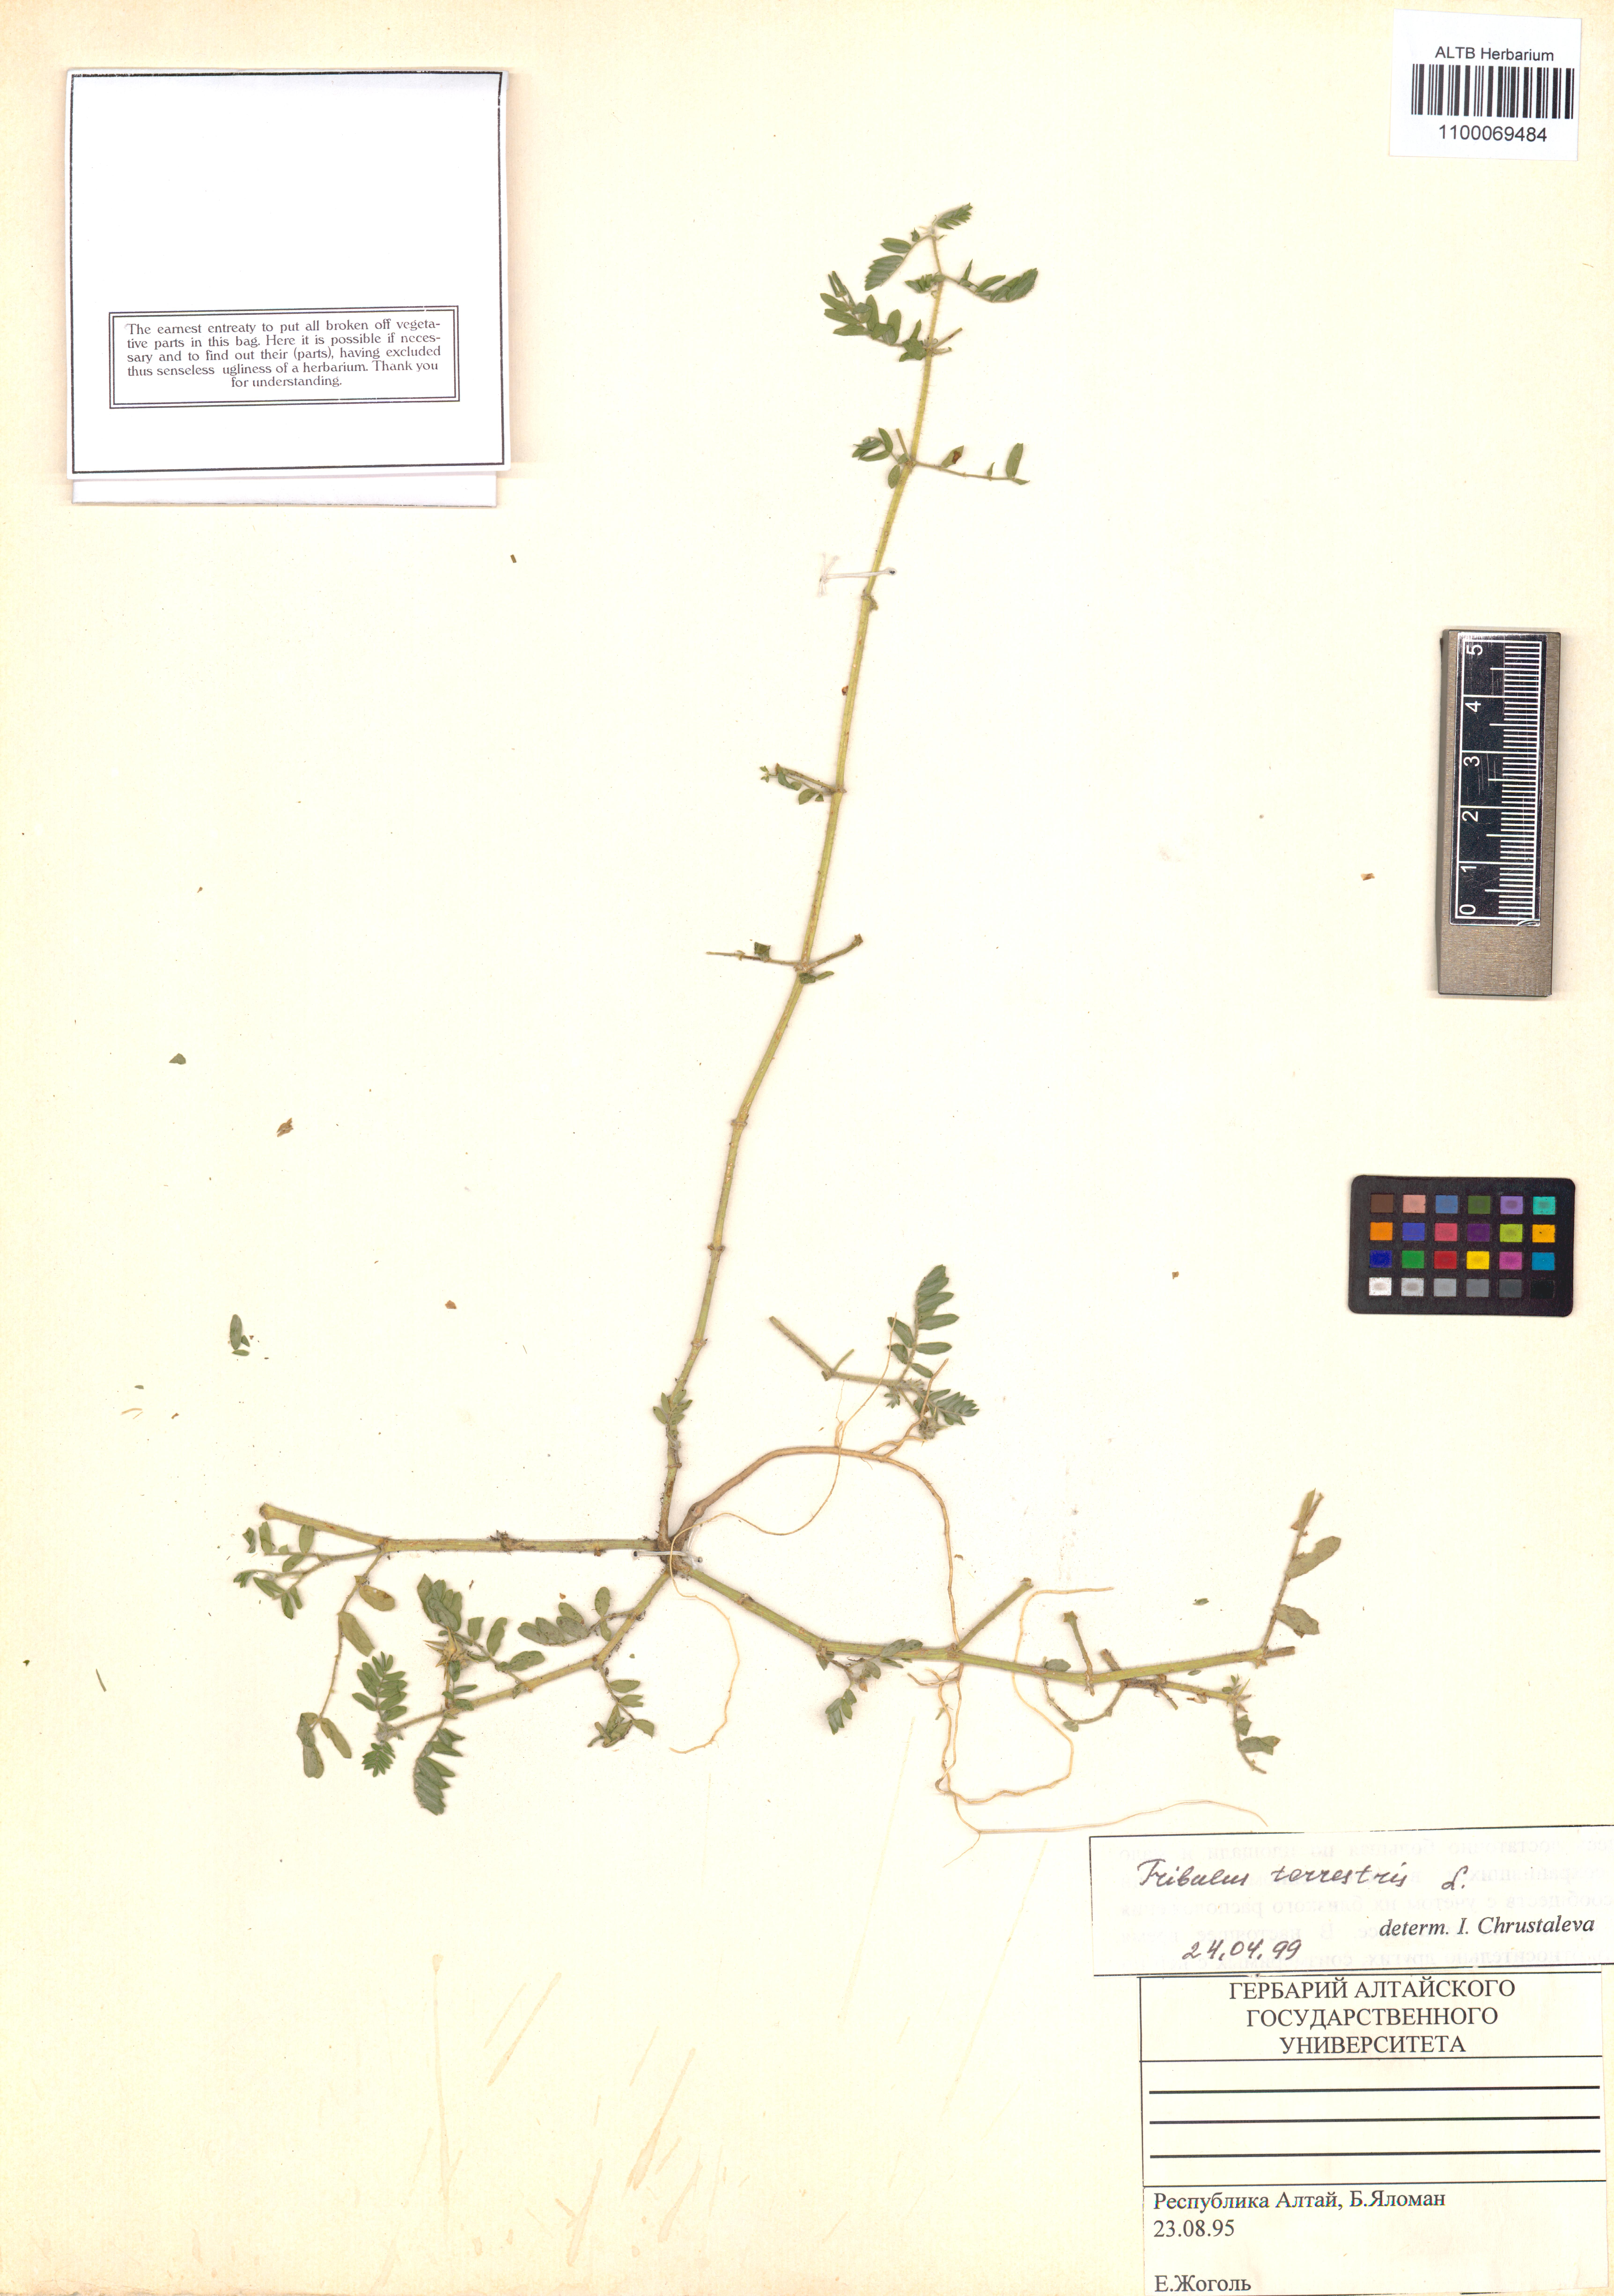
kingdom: Plantae
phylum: Tracheophyta
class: Magnoliopsida
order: Zygophyllales
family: Zygophyllaceae
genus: Tribulus
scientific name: Tribulus terrestris
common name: Puncturevine
